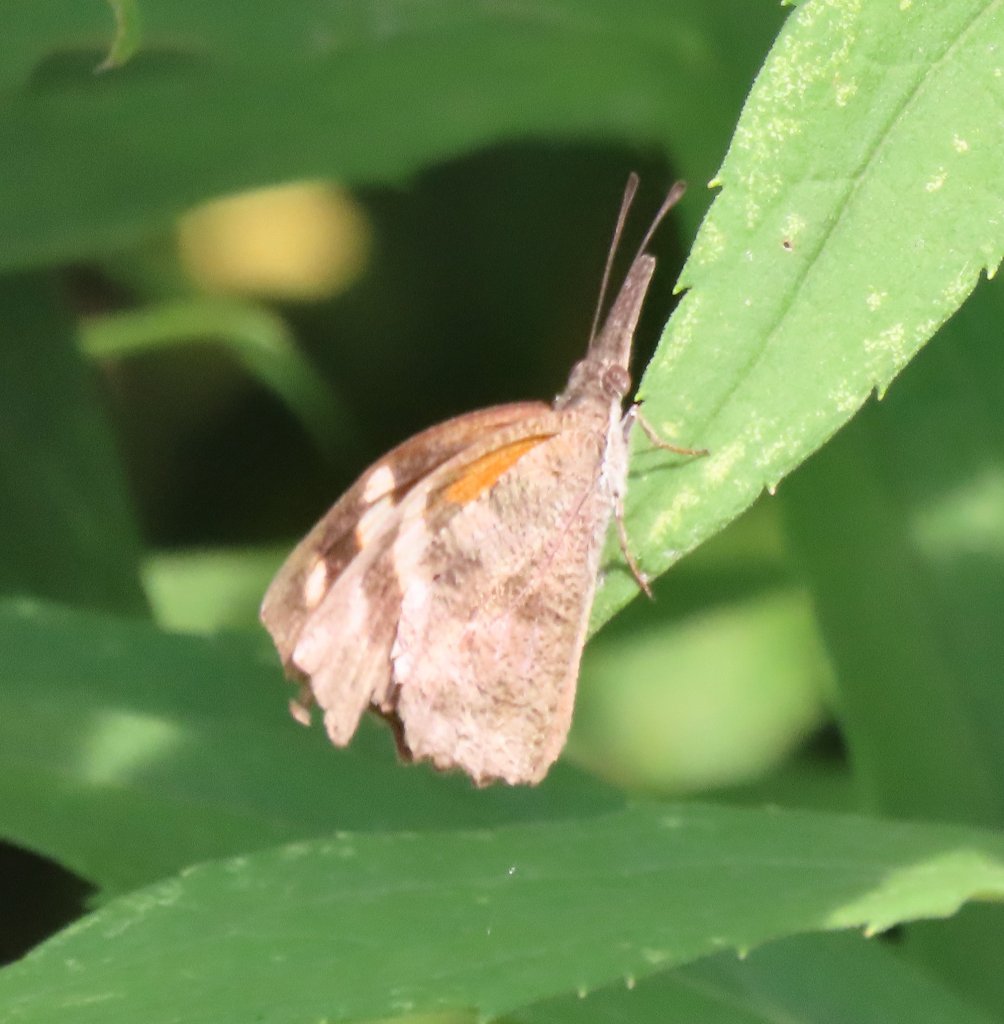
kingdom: Animalia
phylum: Arthropoda
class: Insecta
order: Lepidoptera
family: Nymphalidae
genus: Libytheana
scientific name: Libytheana carinenta
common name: American Snout
